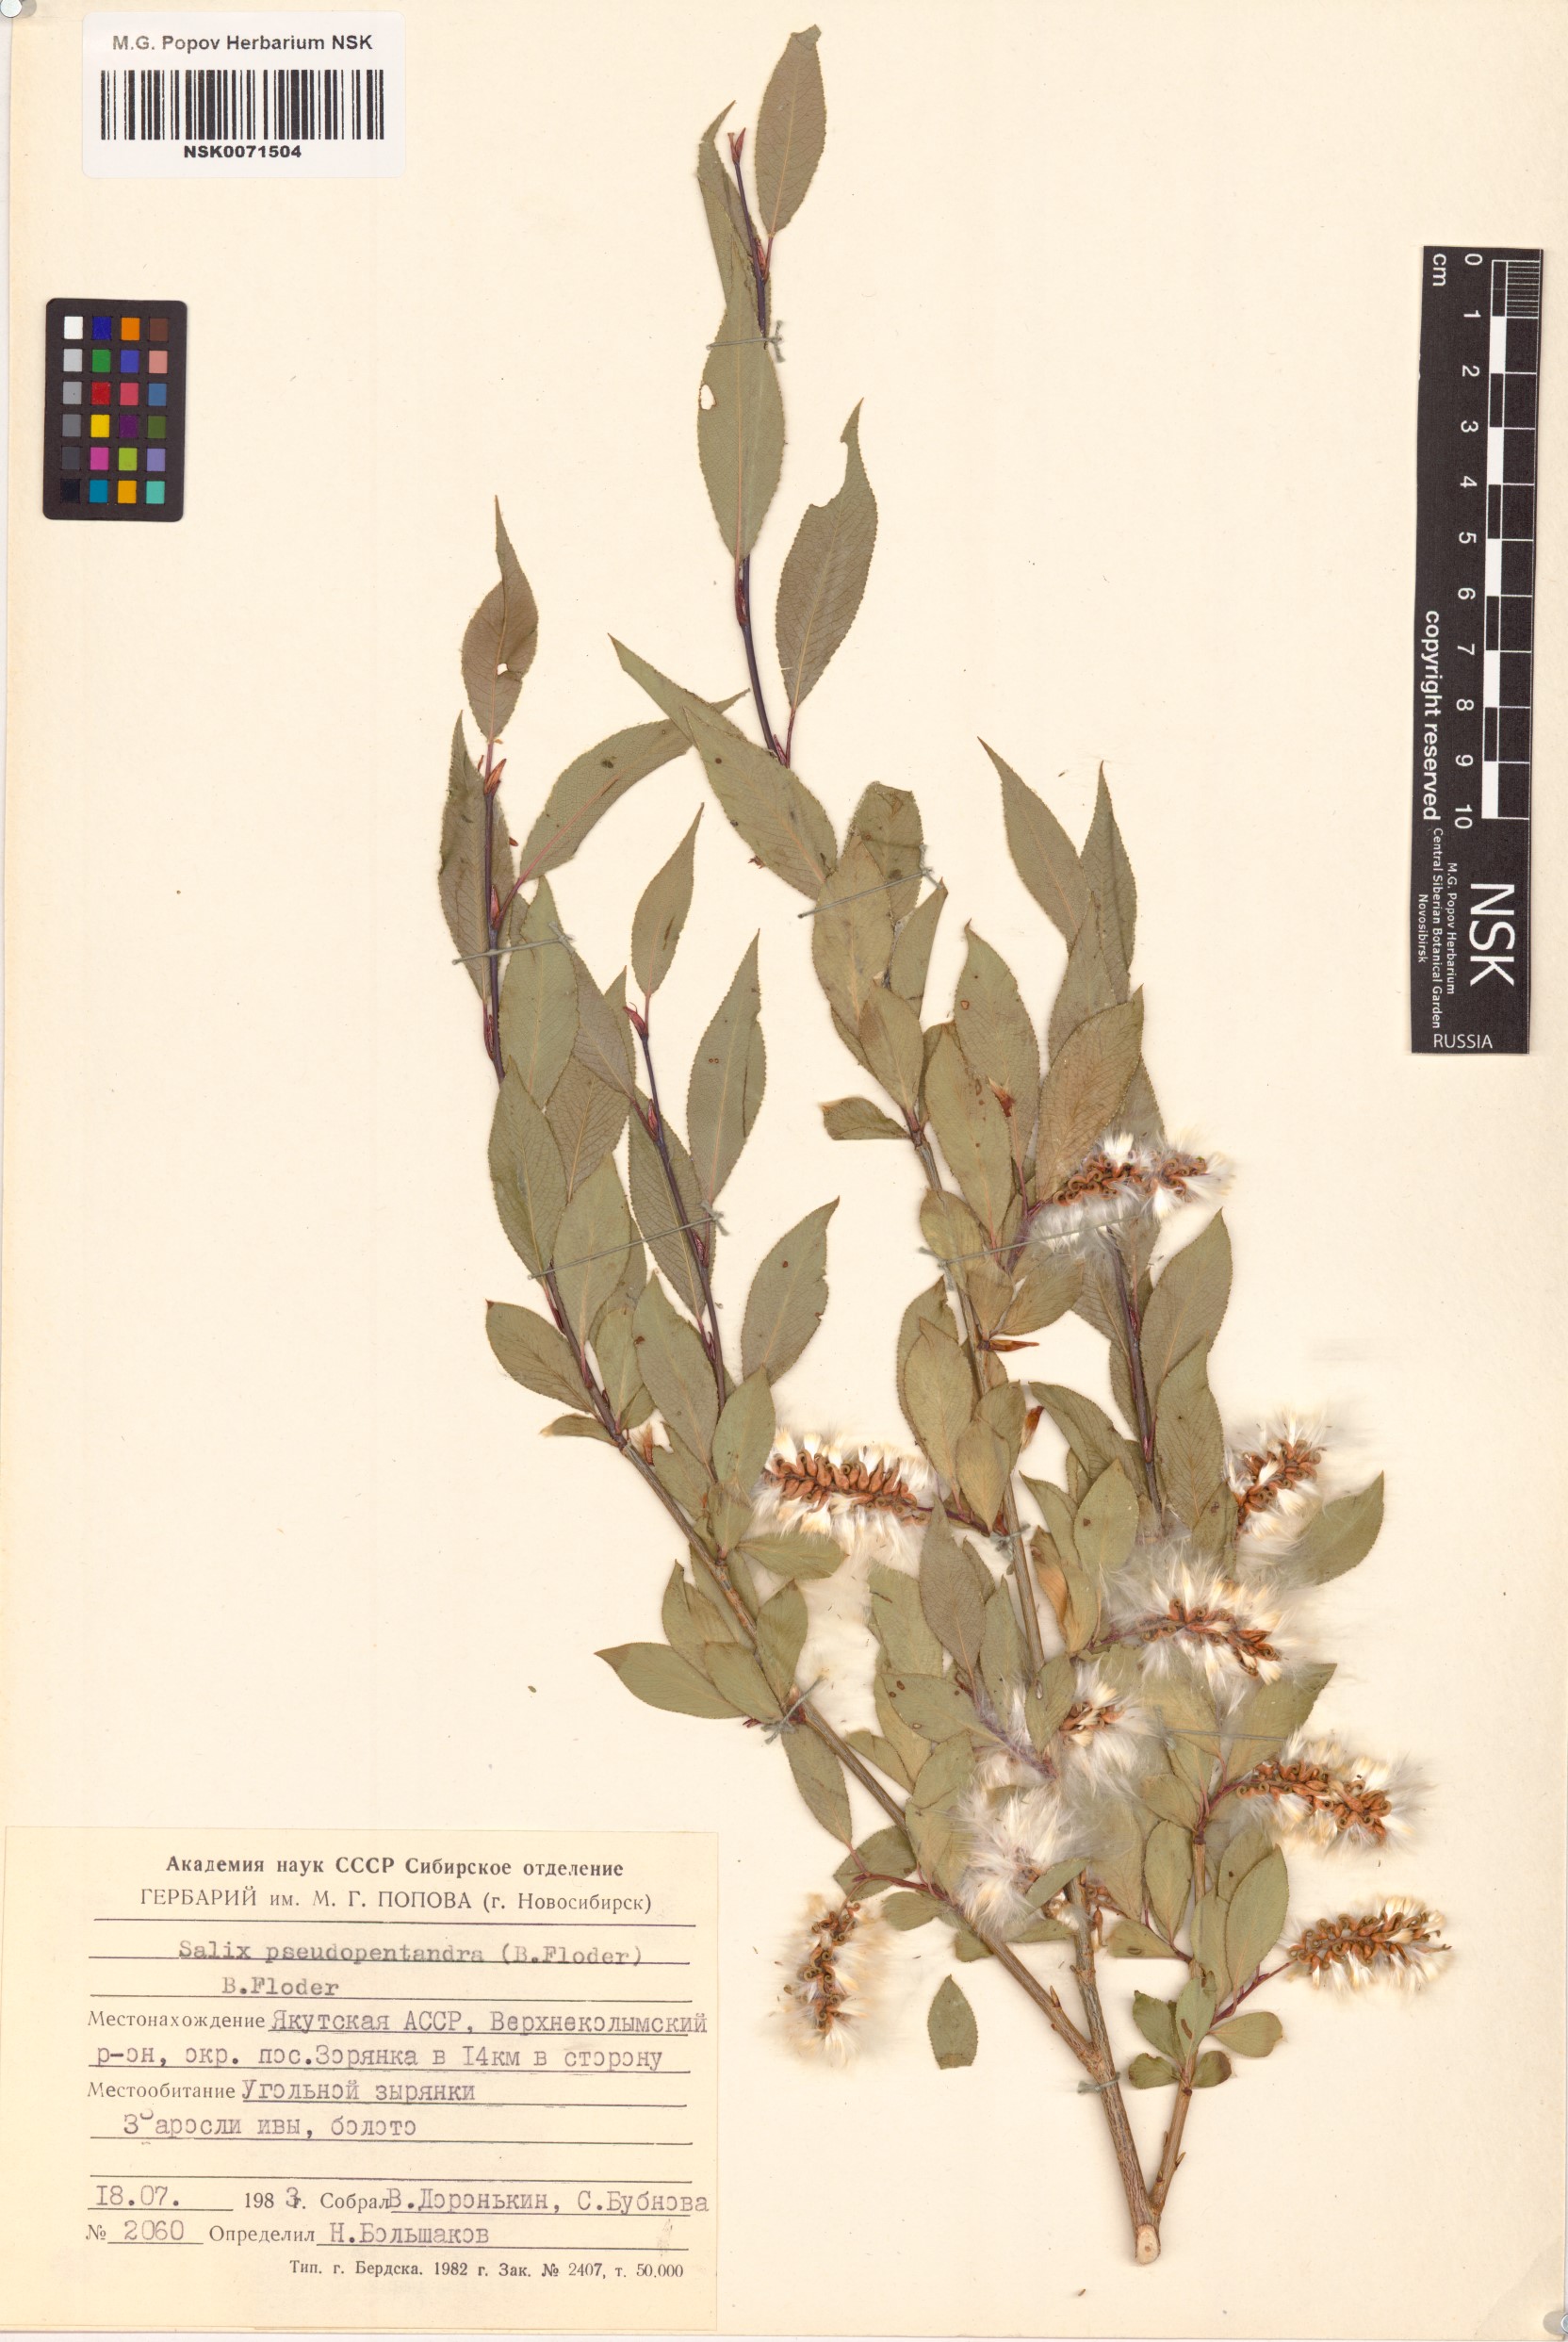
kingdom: Plantae
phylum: Tracheophyta
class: Magnoliopsida
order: Malpighiales
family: Salicaceae
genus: Salix
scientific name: Salix pseudopentandra
